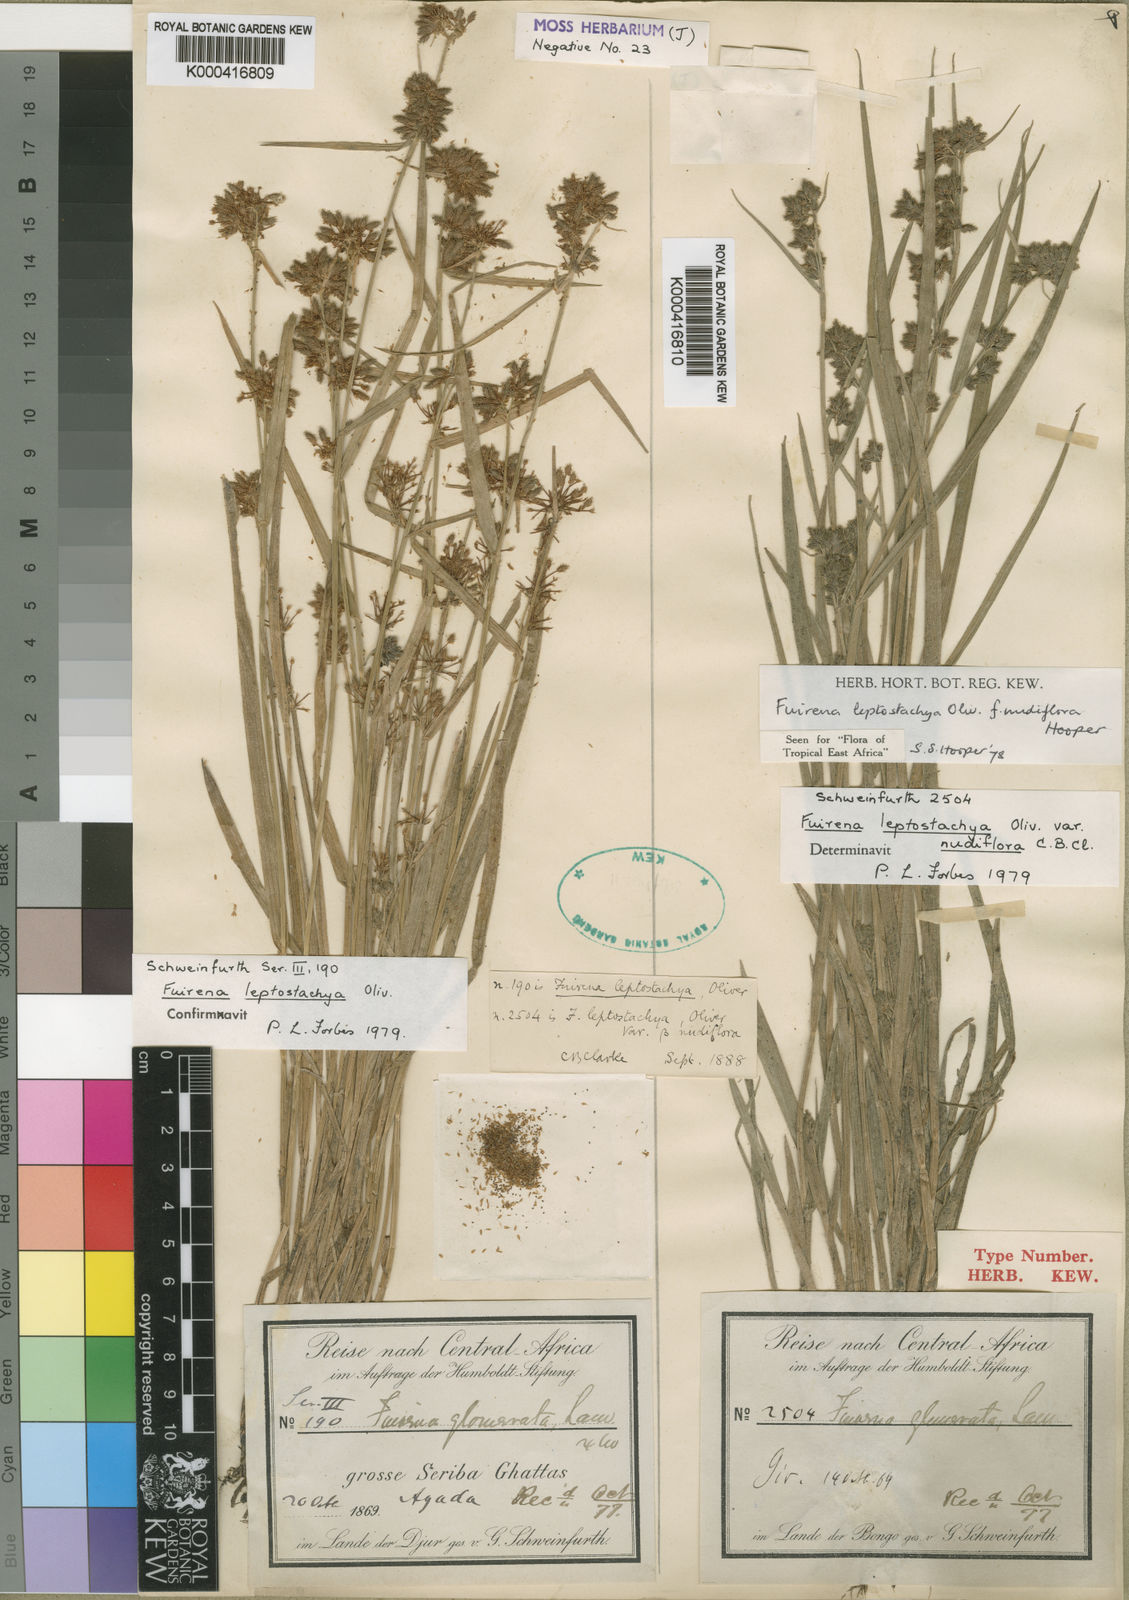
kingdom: Plantae
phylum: Tracheophyta
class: Liliopsida
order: Poales
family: Cyperaceae
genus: Fuirena
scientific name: Fuirena leptostachya
